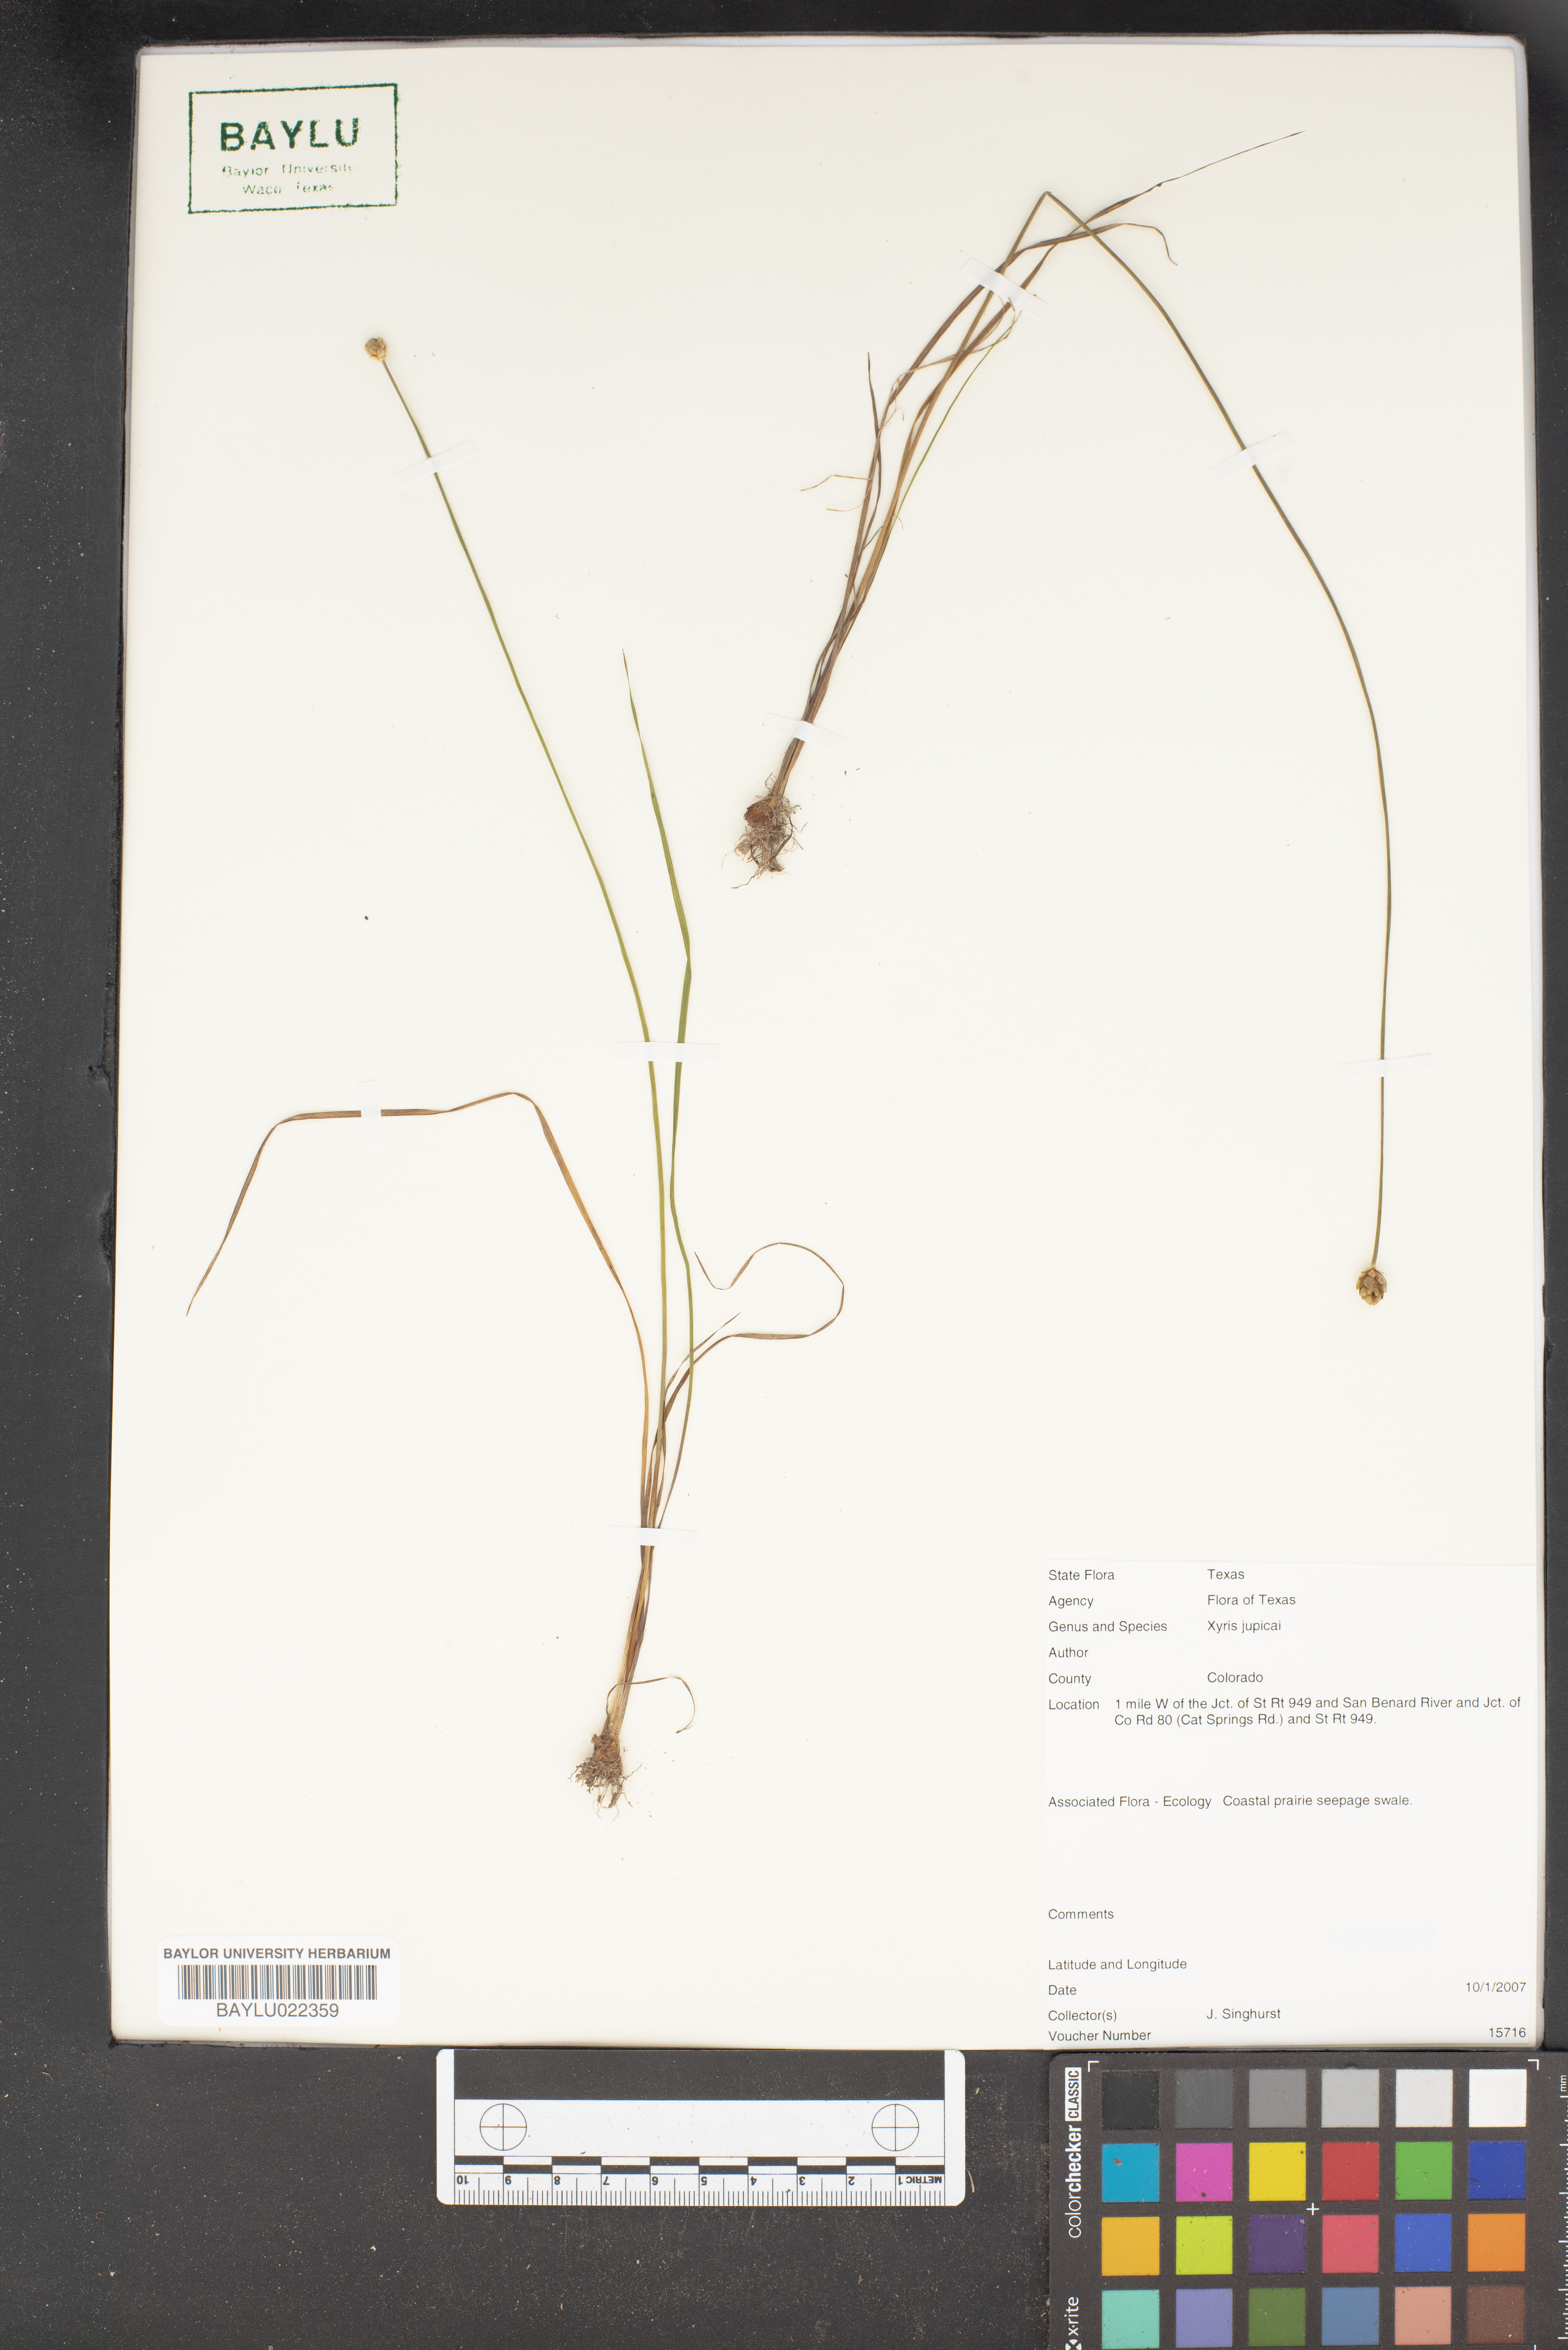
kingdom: Plantae
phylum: Tracheophyta
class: Liliopsida
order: Poales
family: Xyridaceae
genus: Xyris
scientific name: Xyris jupicai
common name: Richard's yelloweyed grass
